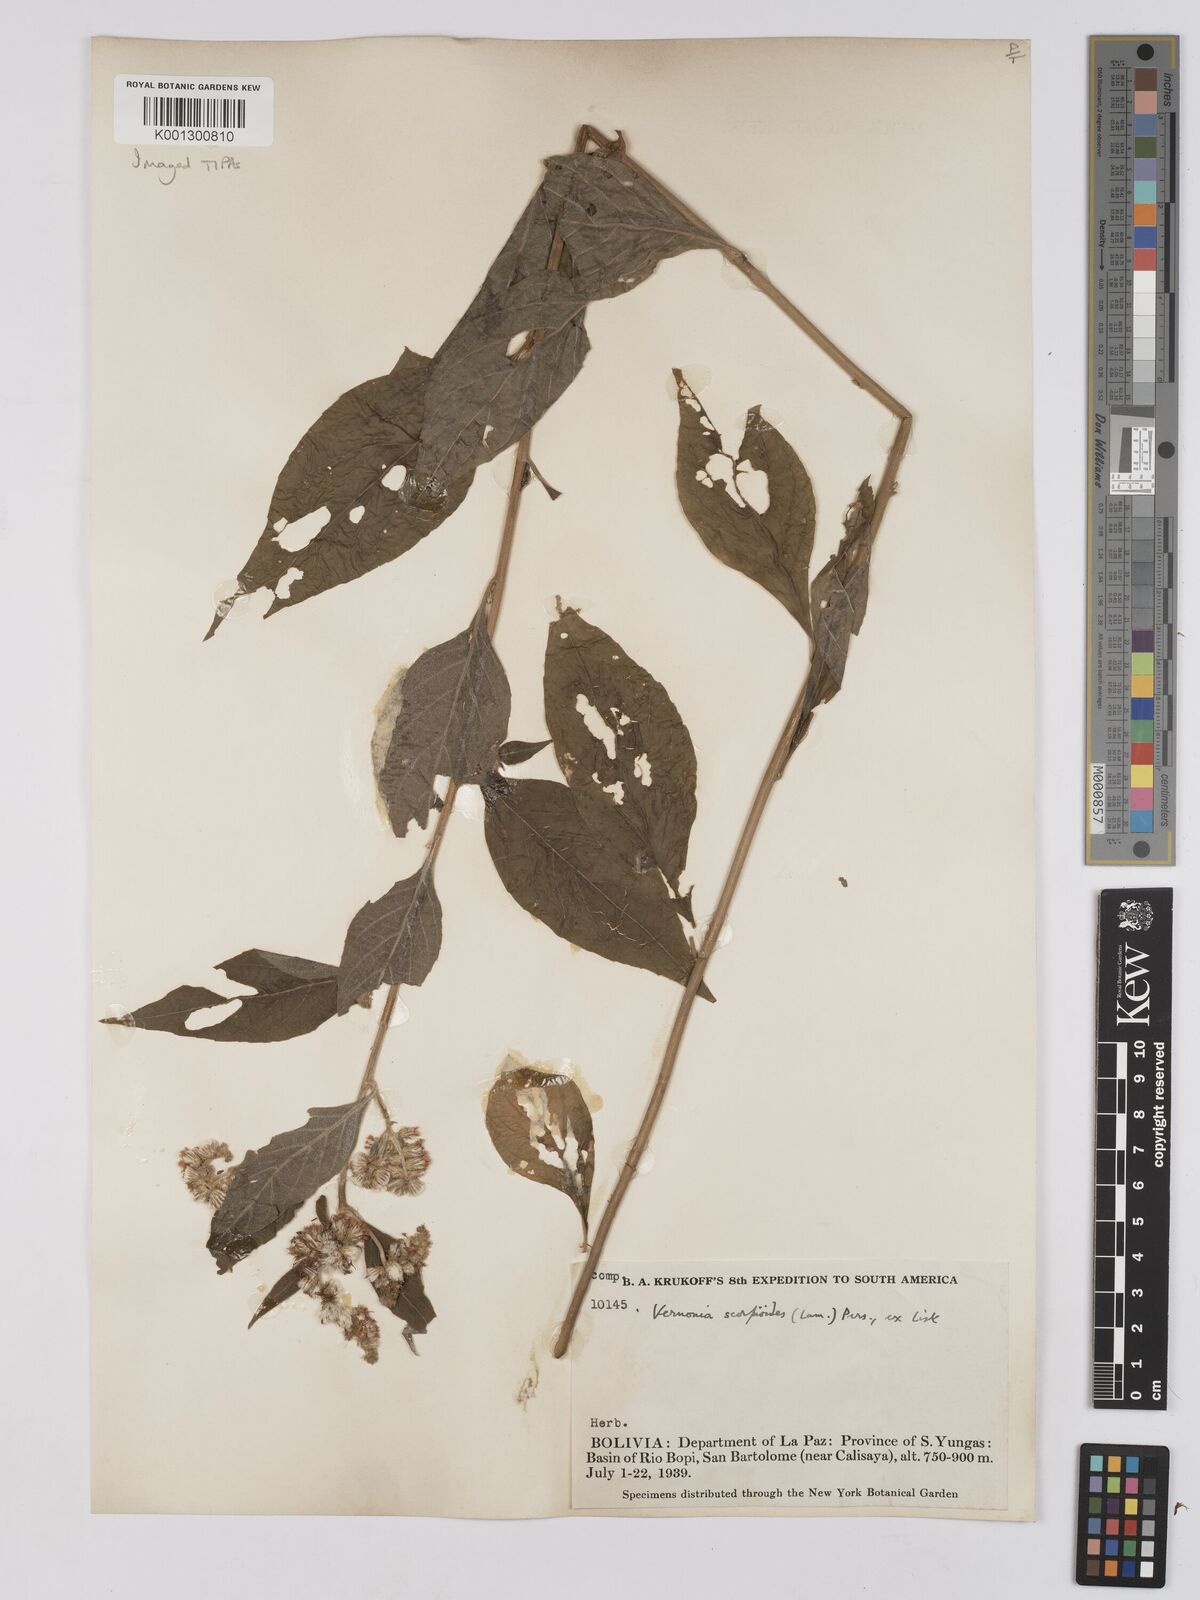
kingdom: Plantae
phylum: Tracheophyta
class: Magnoliopsida
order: Asterales
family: Asteraceae
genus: Cyrtocymura
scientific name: Cyrtocymura scorpioides
